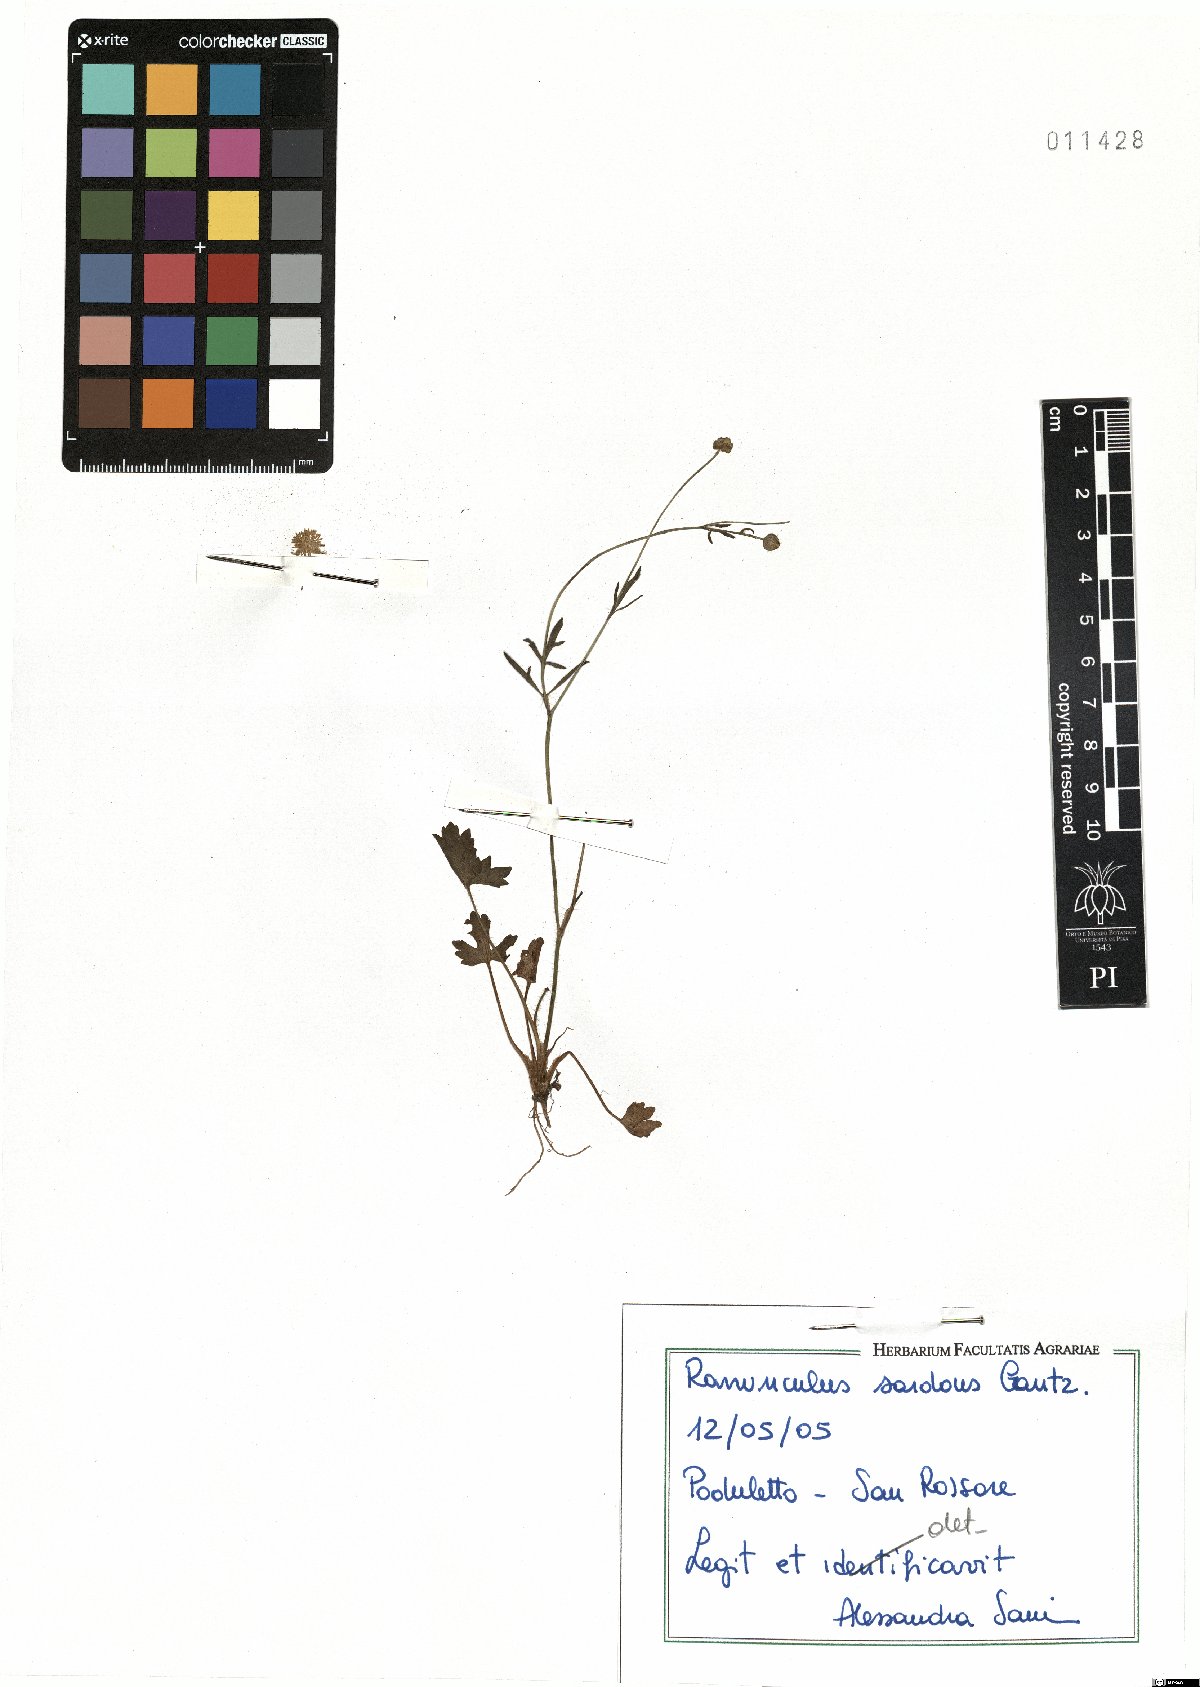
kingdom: Plantae
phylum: Tracheophyta
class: Magnoliopsida
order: Ranunculales
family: Ranunculaceae
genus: Ranunculus
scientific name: Ranunculus sardous
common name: Hairy buttercup
